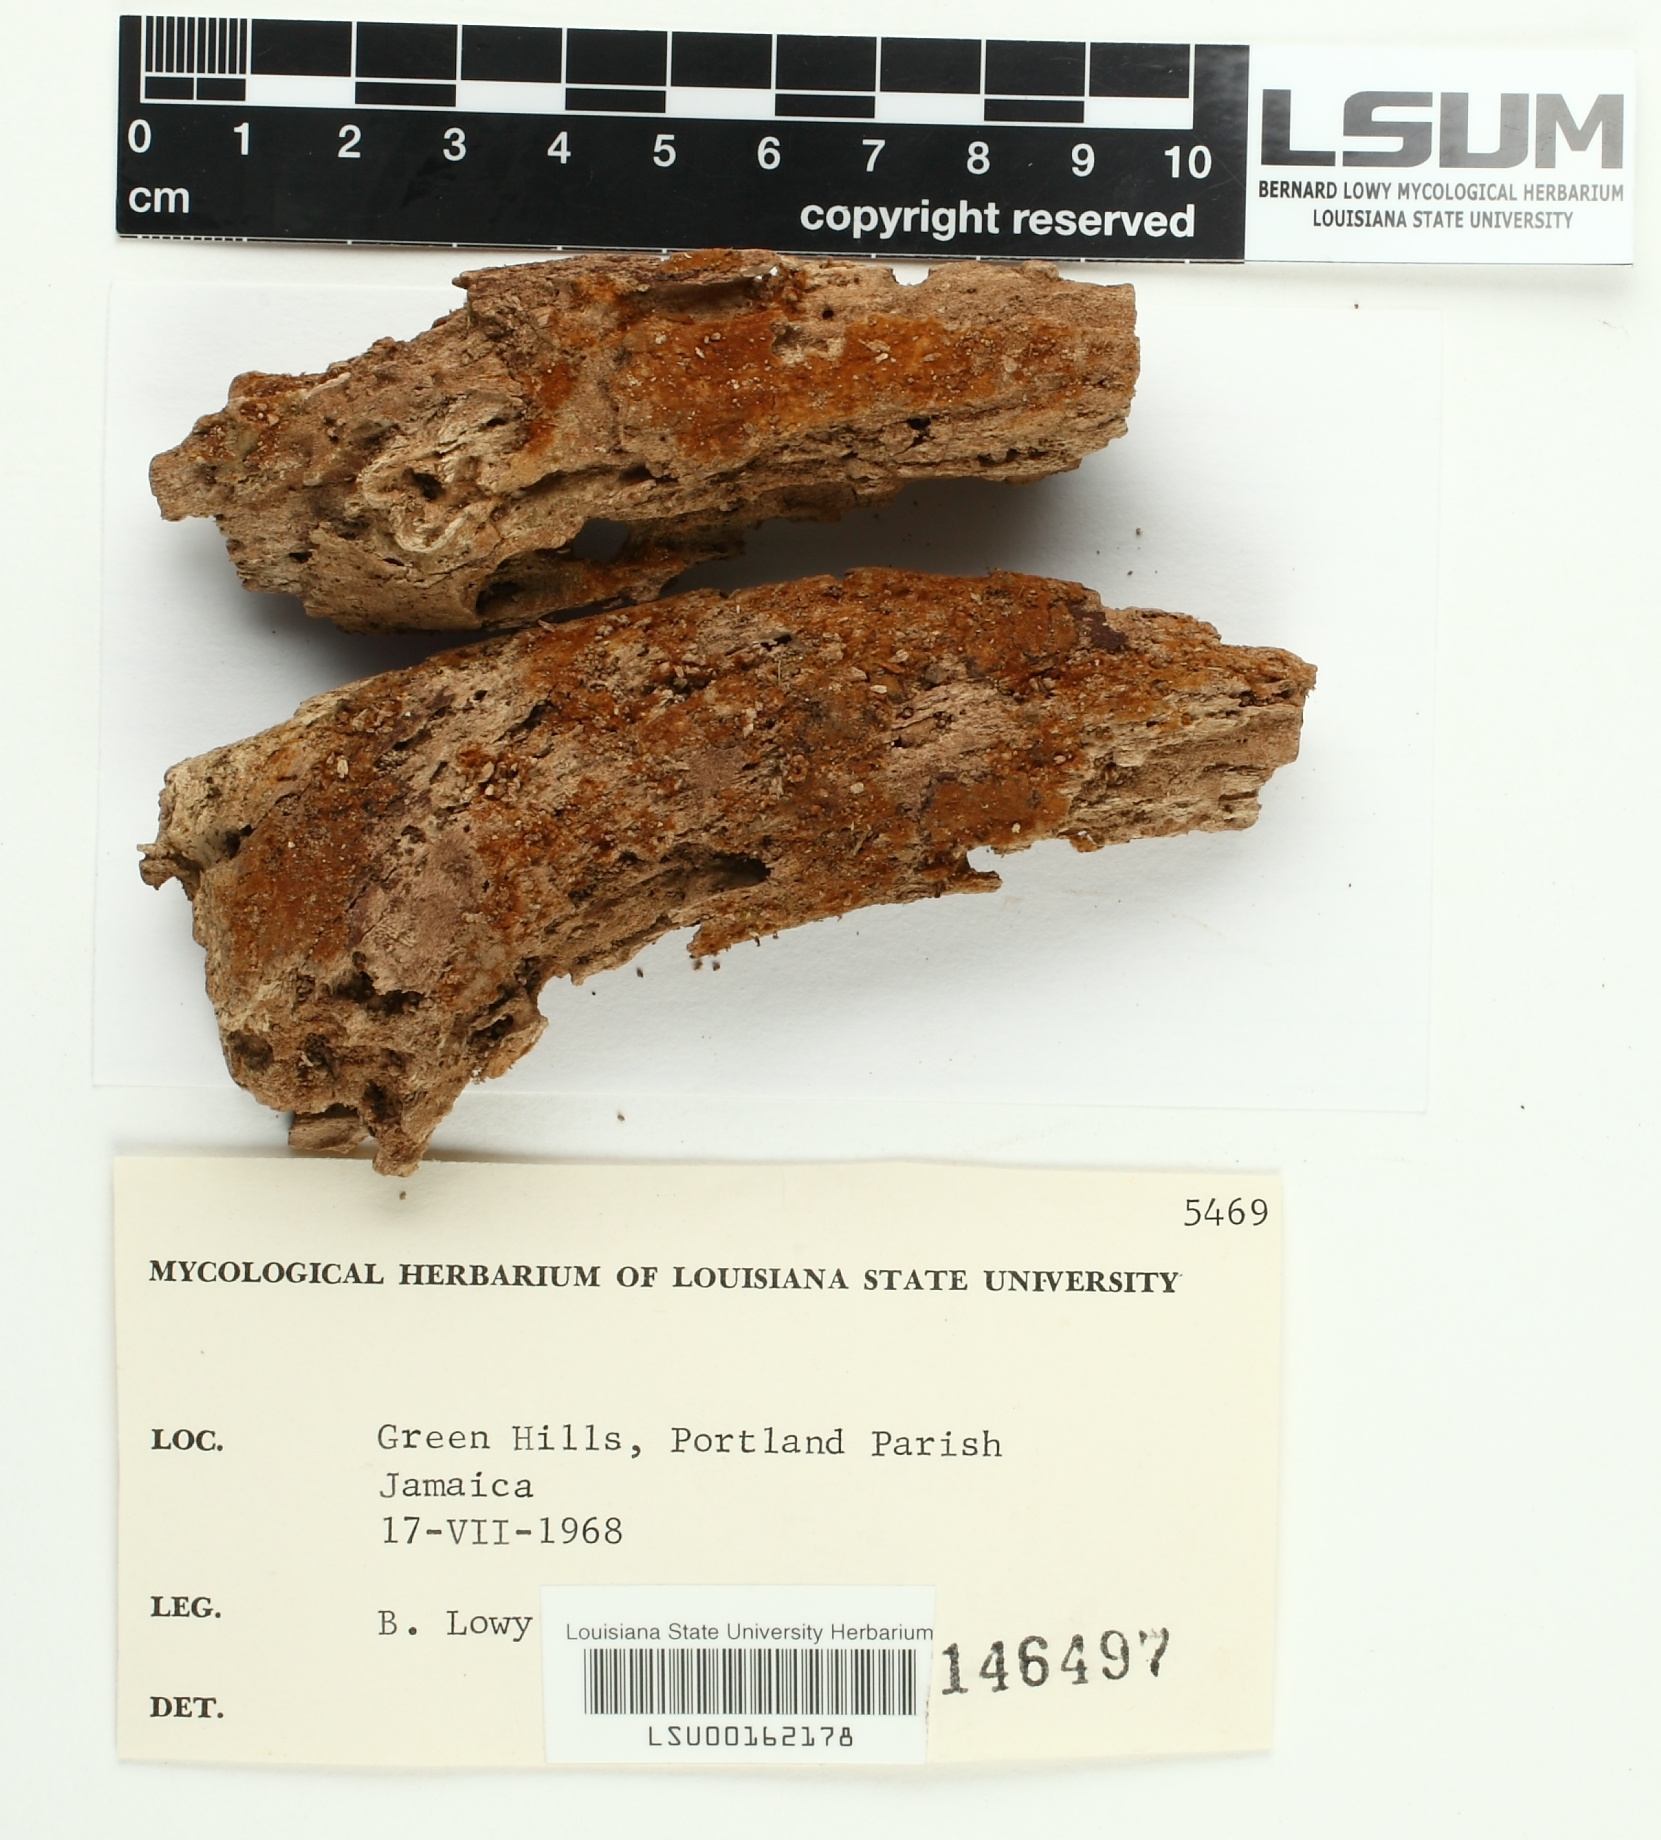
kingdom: Fungi
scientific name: Fungi
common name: Fungi
